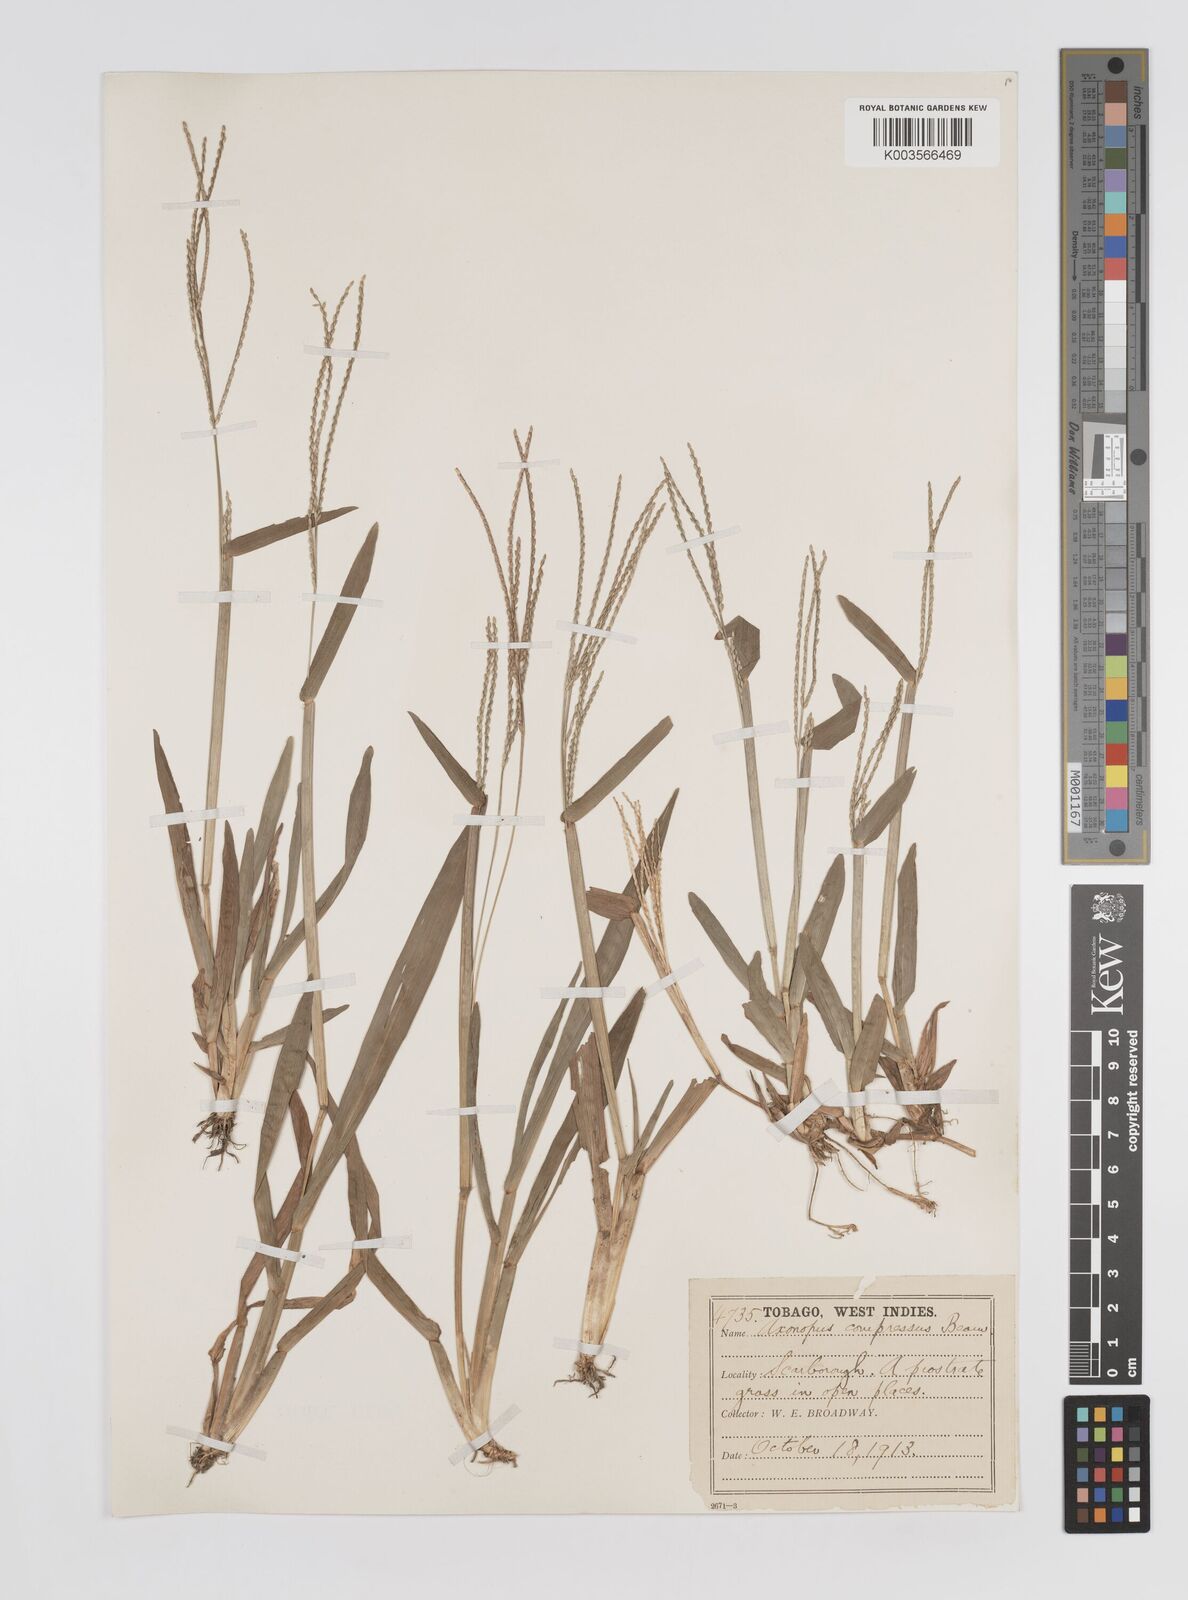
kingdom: Plantae
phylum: Tracheophyta
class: Liliopsida
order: Poales
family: Poaceae
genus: Axonopus
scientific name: Axonopus compressus
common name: American carpet grass
